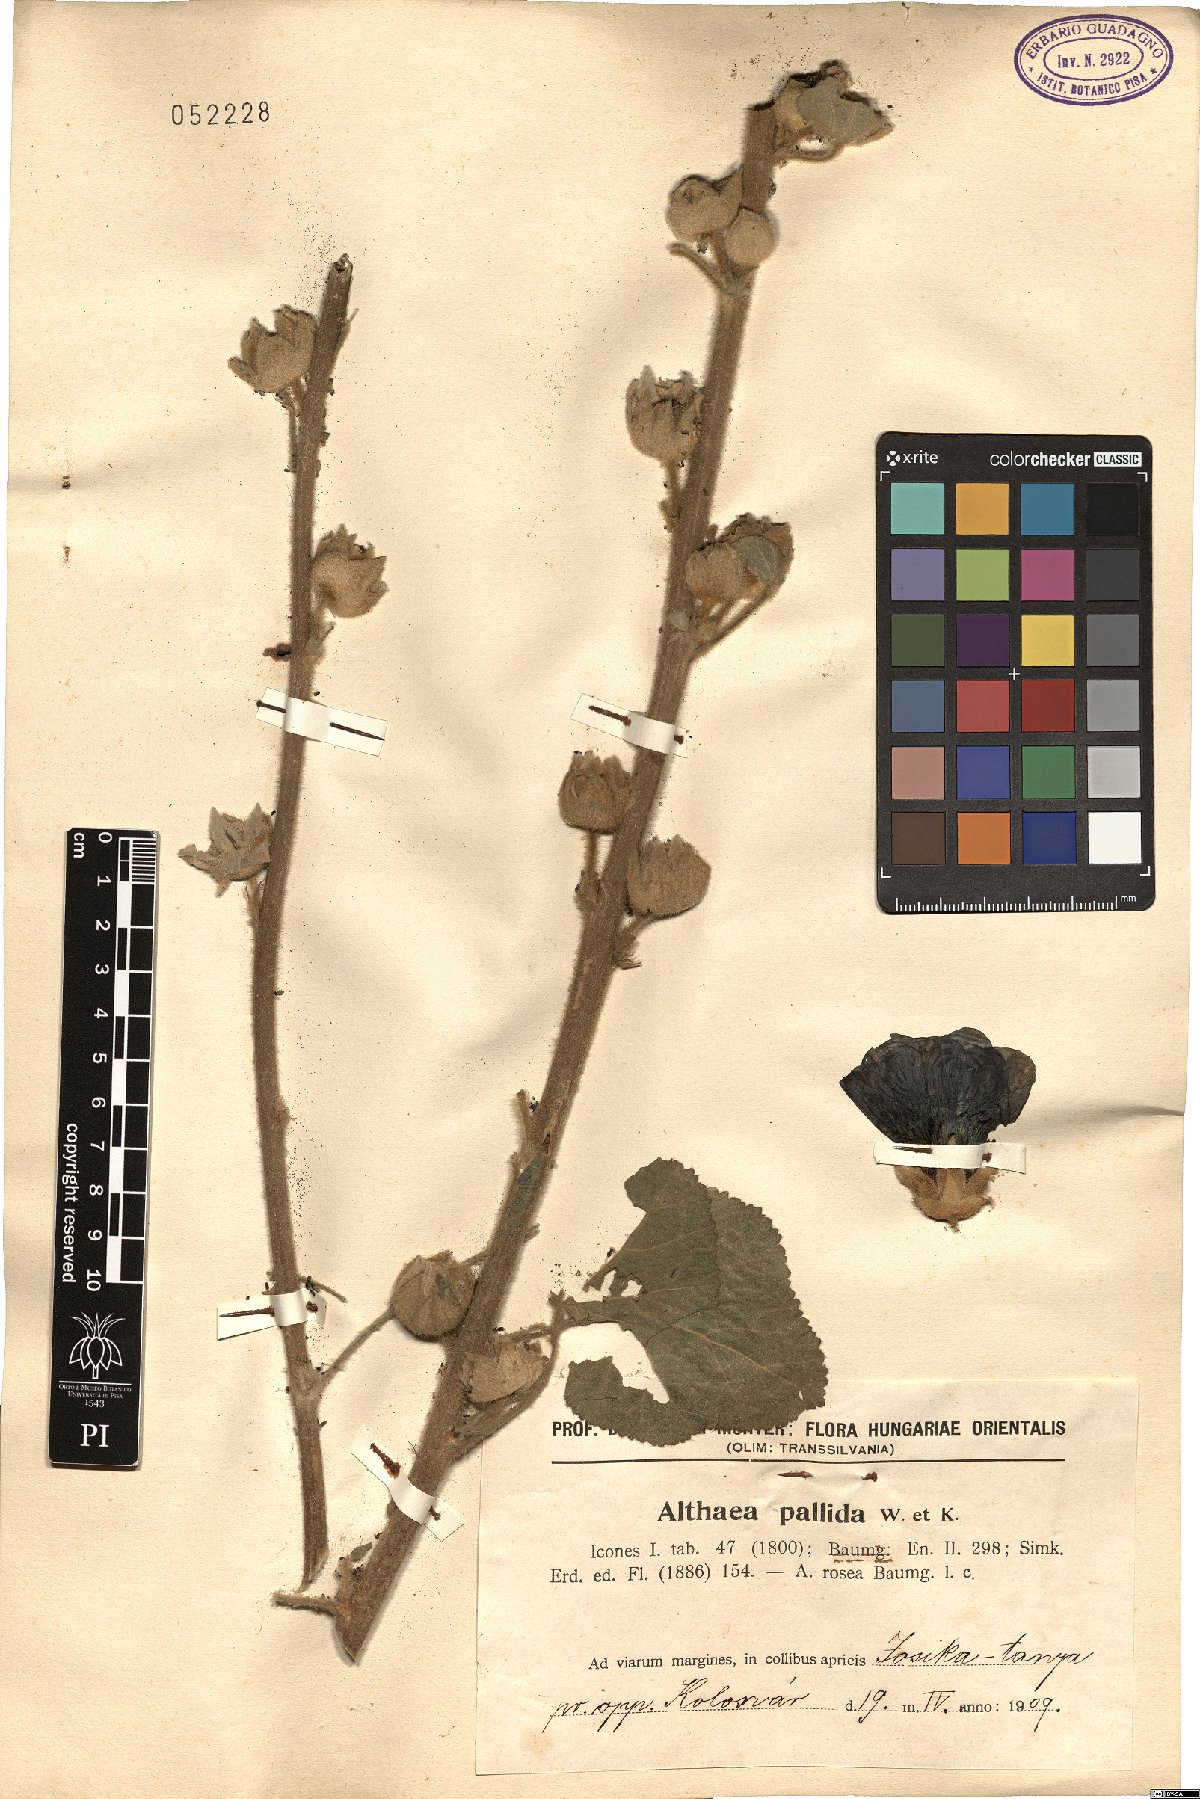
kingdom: Plantae
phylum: Tracheophyta
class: Magnoliopsida
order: Malvales
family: Malvaceae
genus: Alcea
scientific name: Alcea biennis
